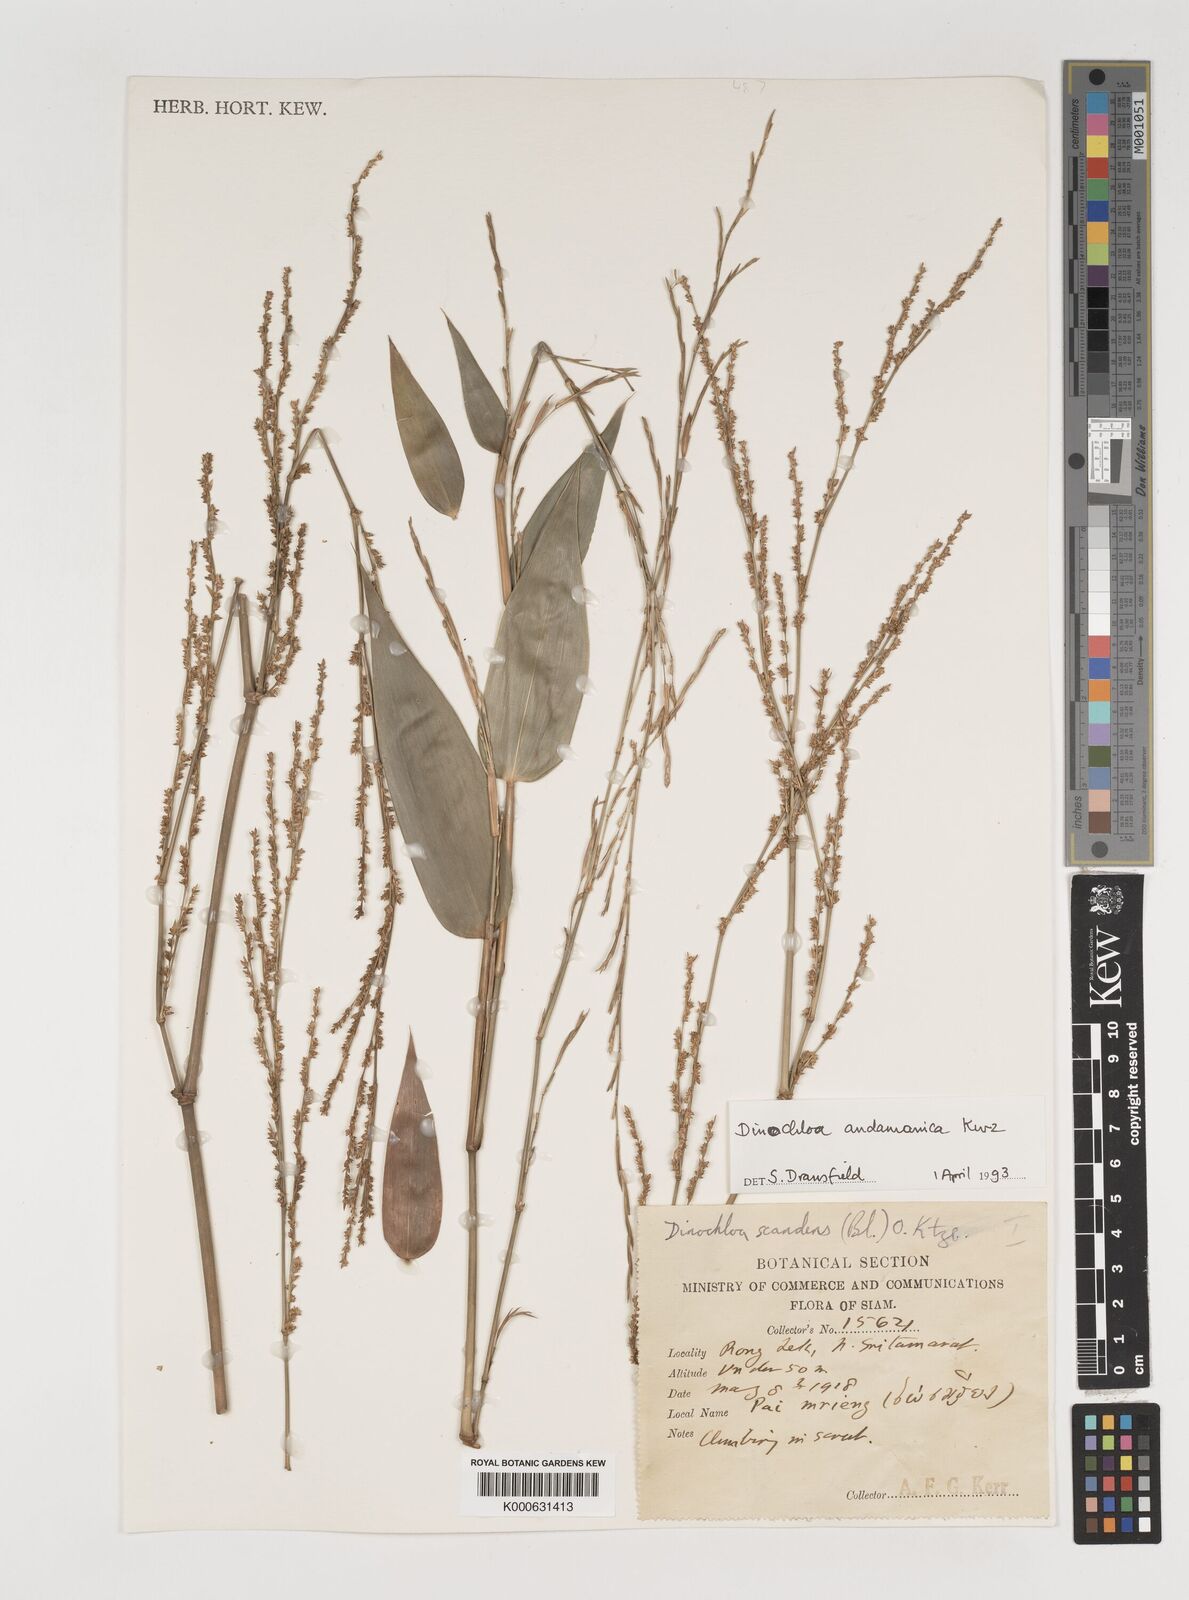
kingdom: Plantae
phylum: Tracheophyta
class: Liliopsida
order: Poales
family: Poaceae
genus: Dinochloa
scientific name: Dinochloa andamanica
